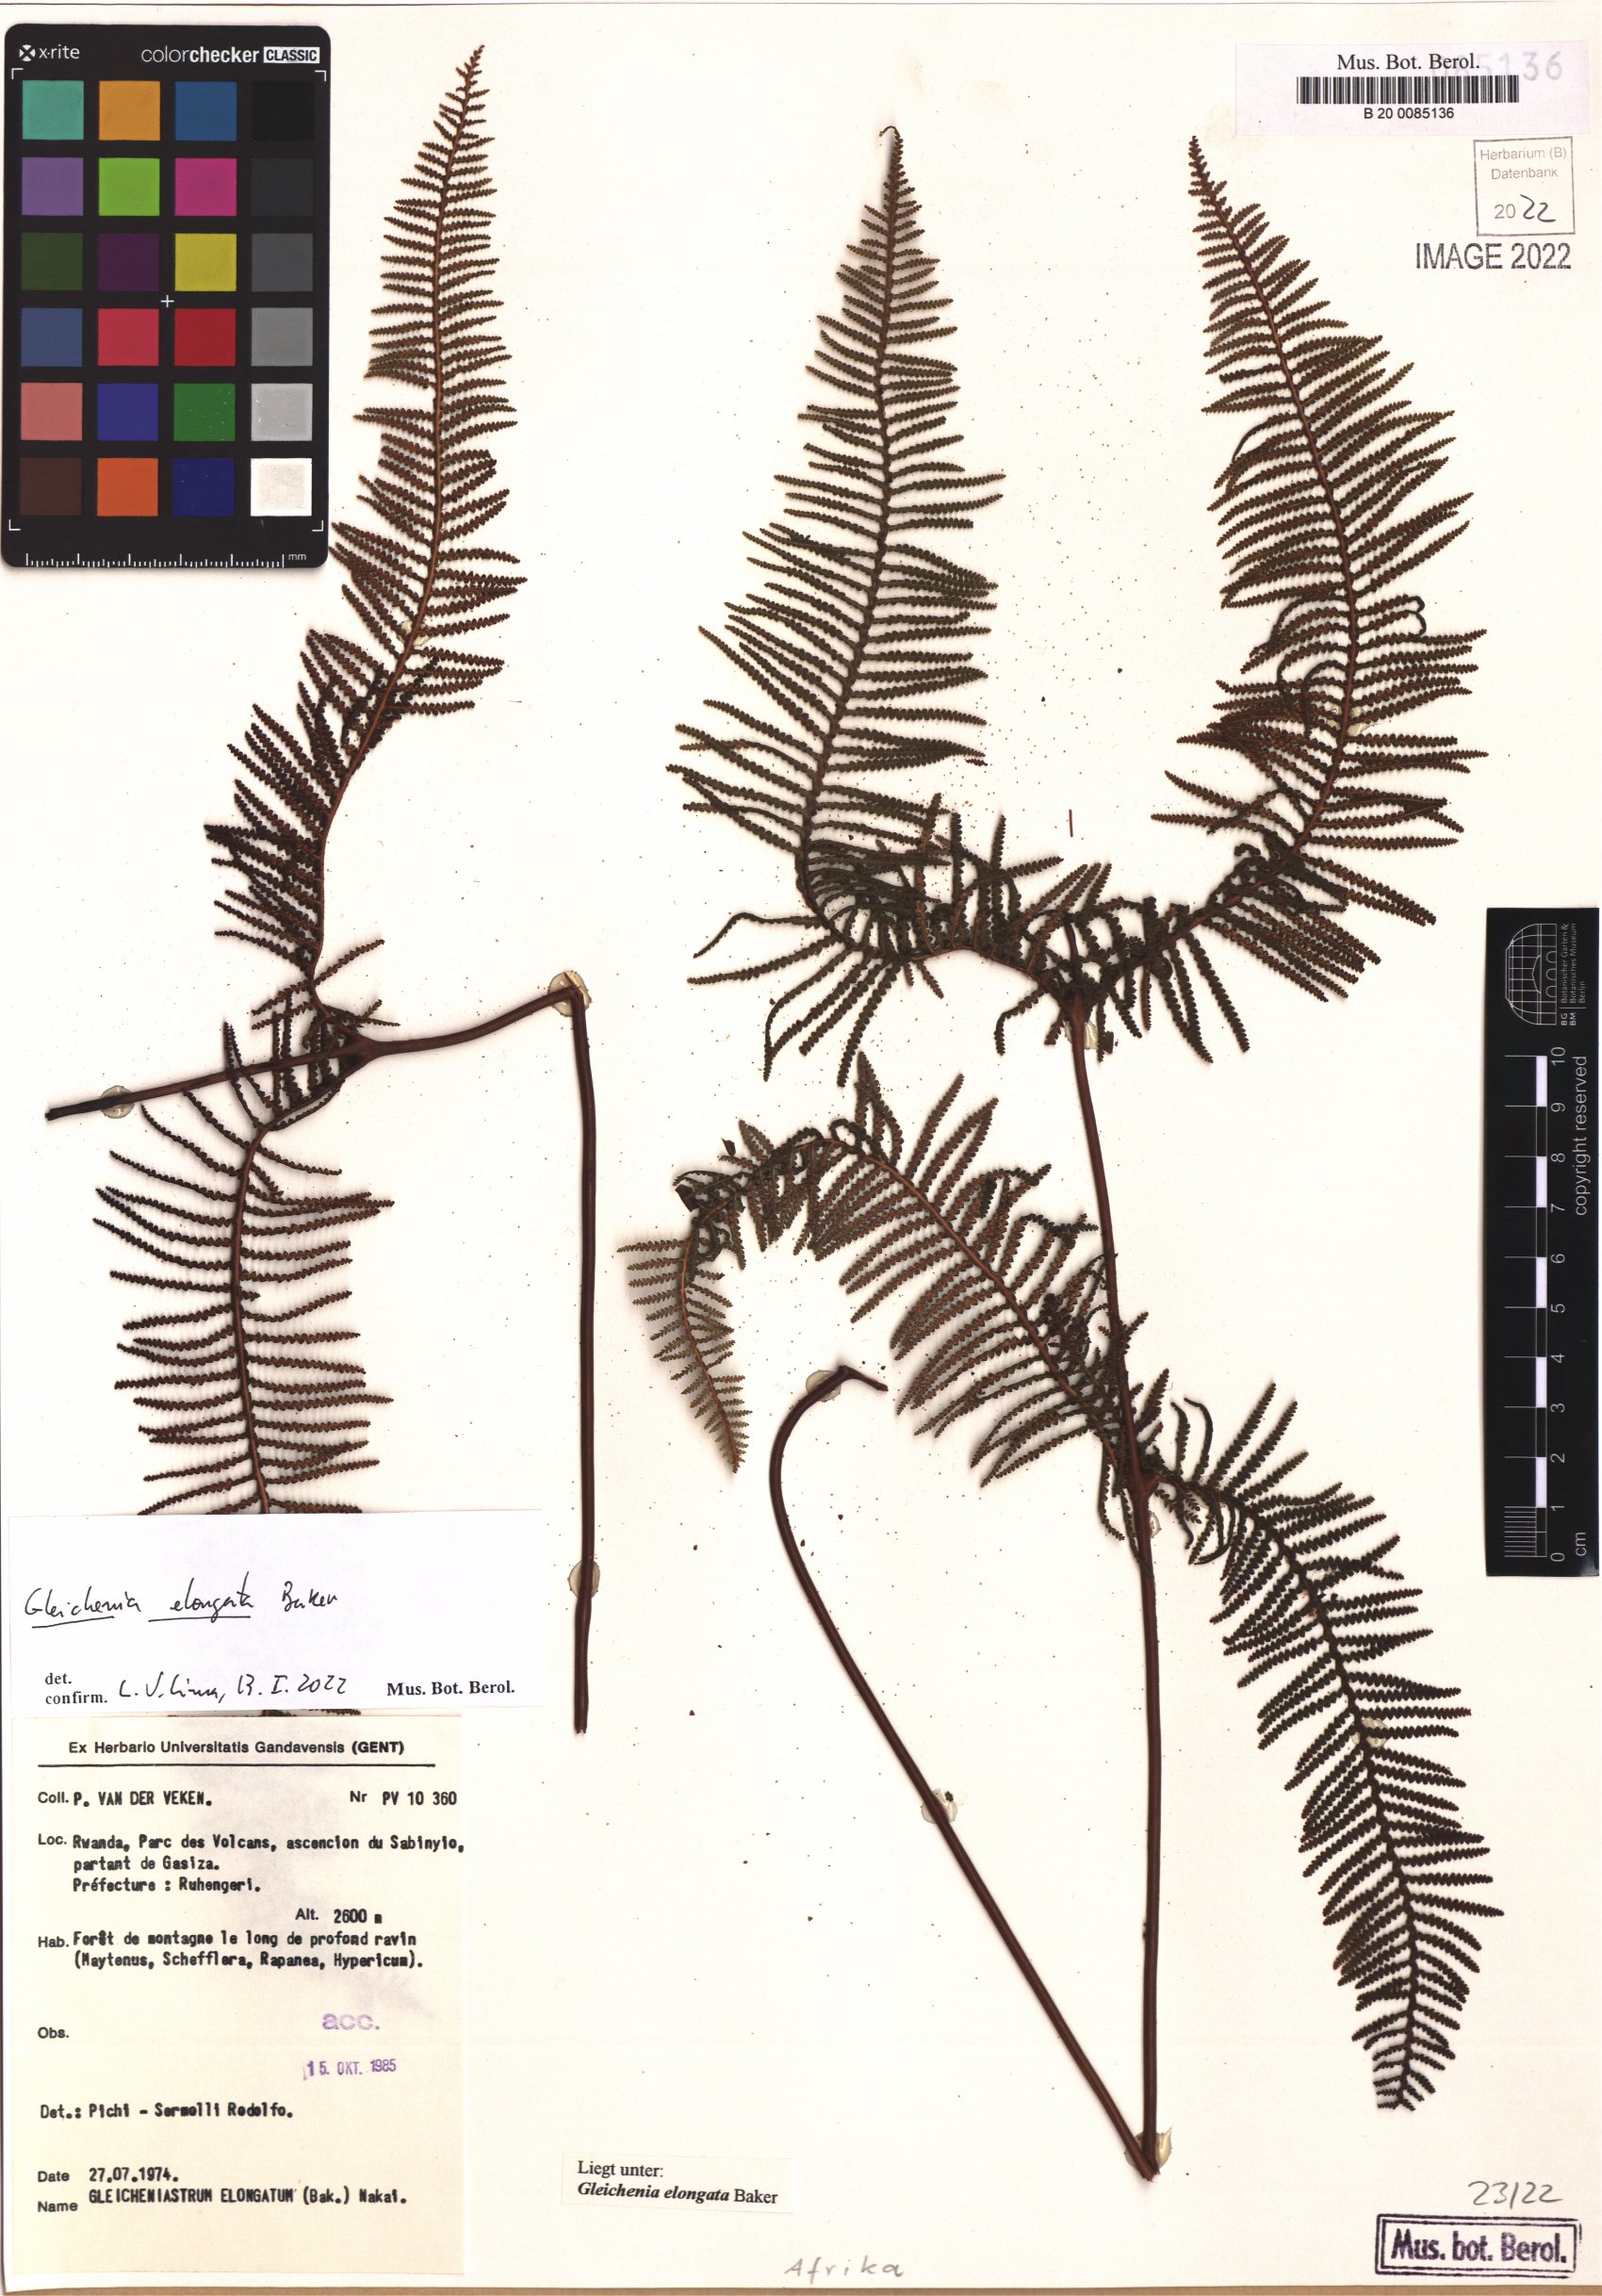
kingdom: Plantae
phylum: Tracheophyta
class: Polypodiopsida
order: Gleicheniales
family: Gleicheniaceae
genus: Gleichenia
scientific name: Gleichenia elongata
